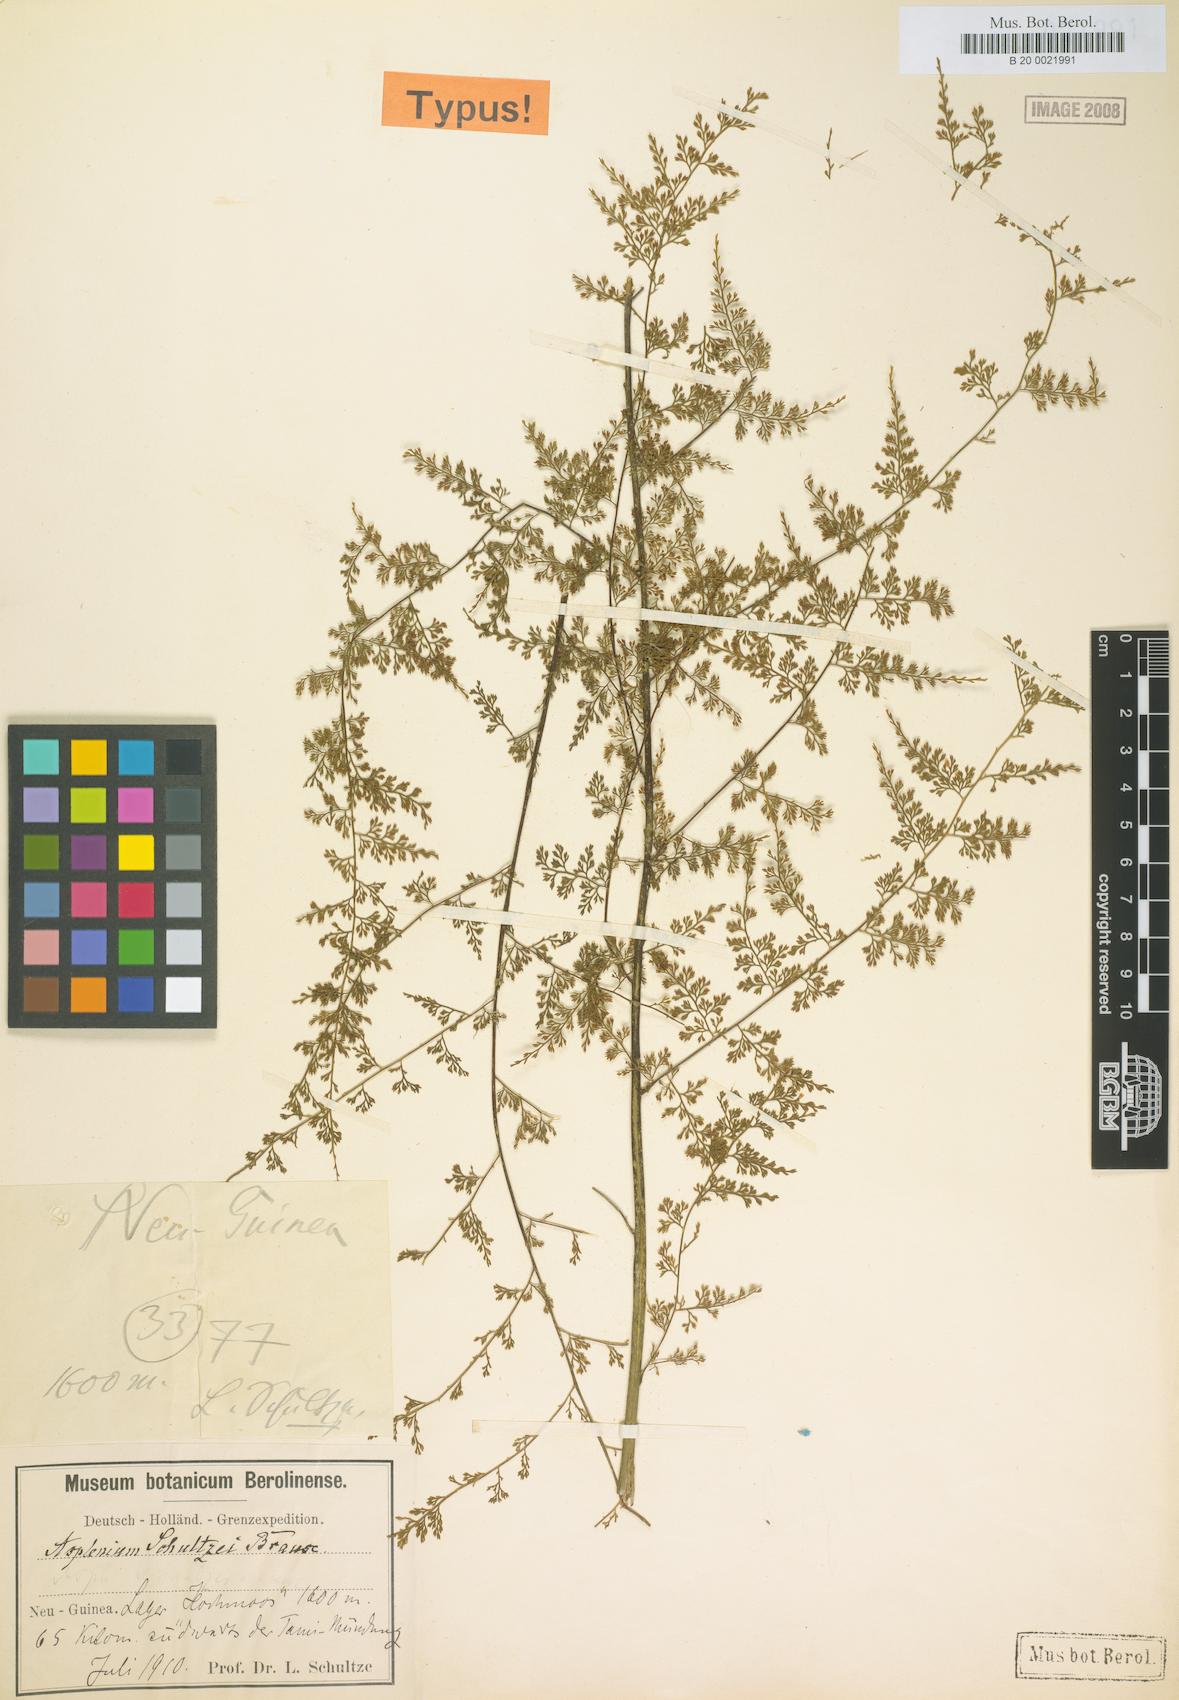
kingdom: Plantae
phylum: Tracheophyta
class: Polypodiopsida
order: Polypodiales
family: Aspleniaceae
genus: Asplenium
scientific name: Asplenium schultzei
